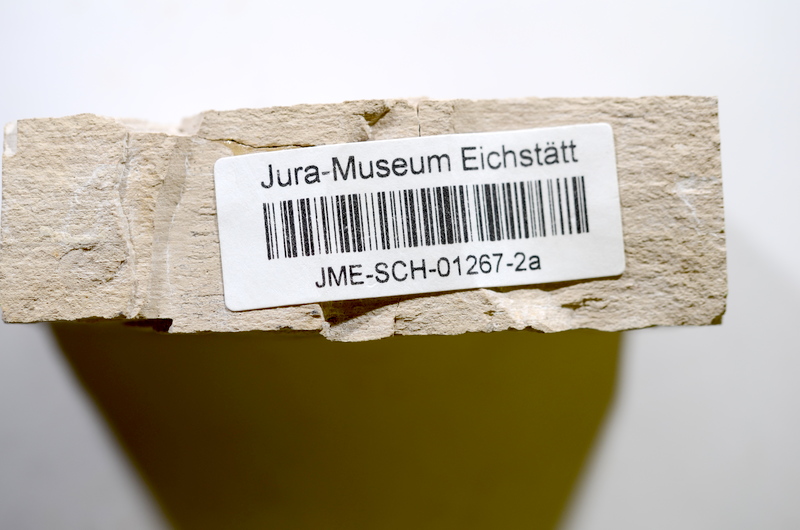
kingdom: Animalia
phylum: Chordata
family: Ascalaboidae
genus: Tharsis
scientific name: Tharsis dubius
